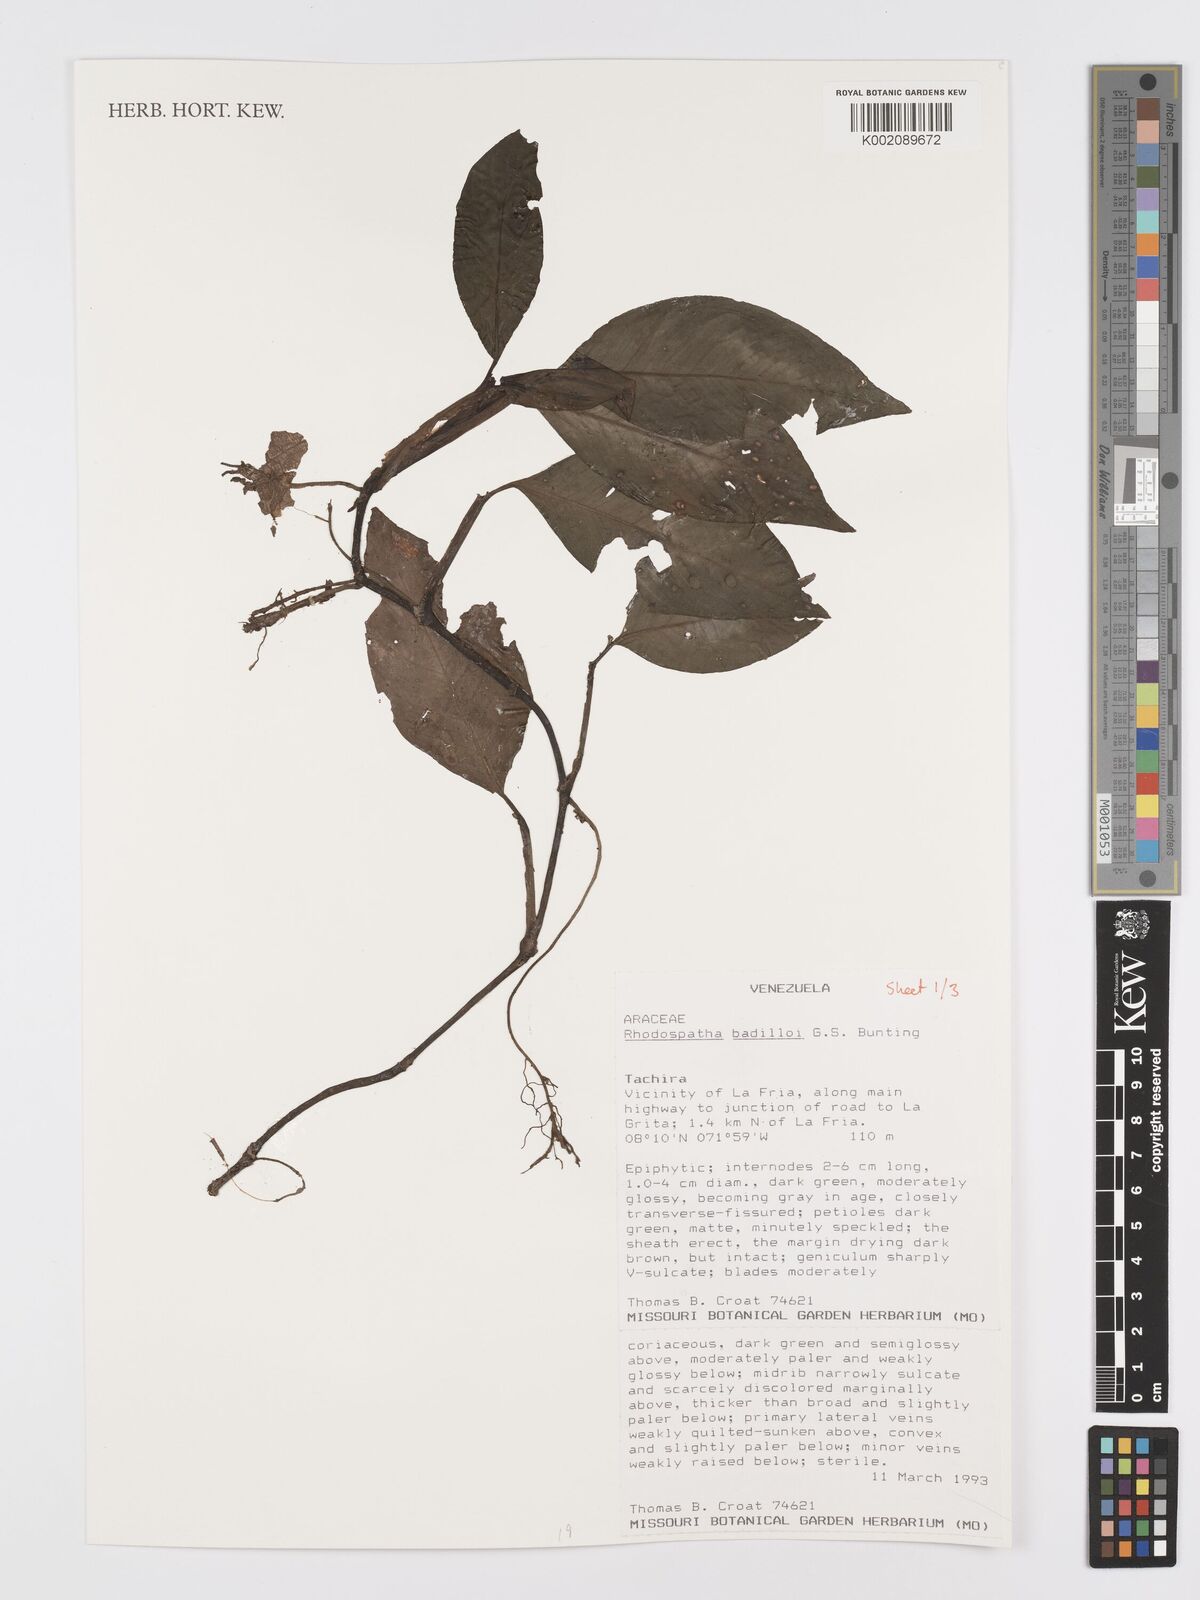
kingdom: Plantae
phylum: Tracheophyta
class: Liliopsida
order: Alismatales
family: Araceae
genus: Rhodospatha
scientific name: Rhodospatha badilloi
